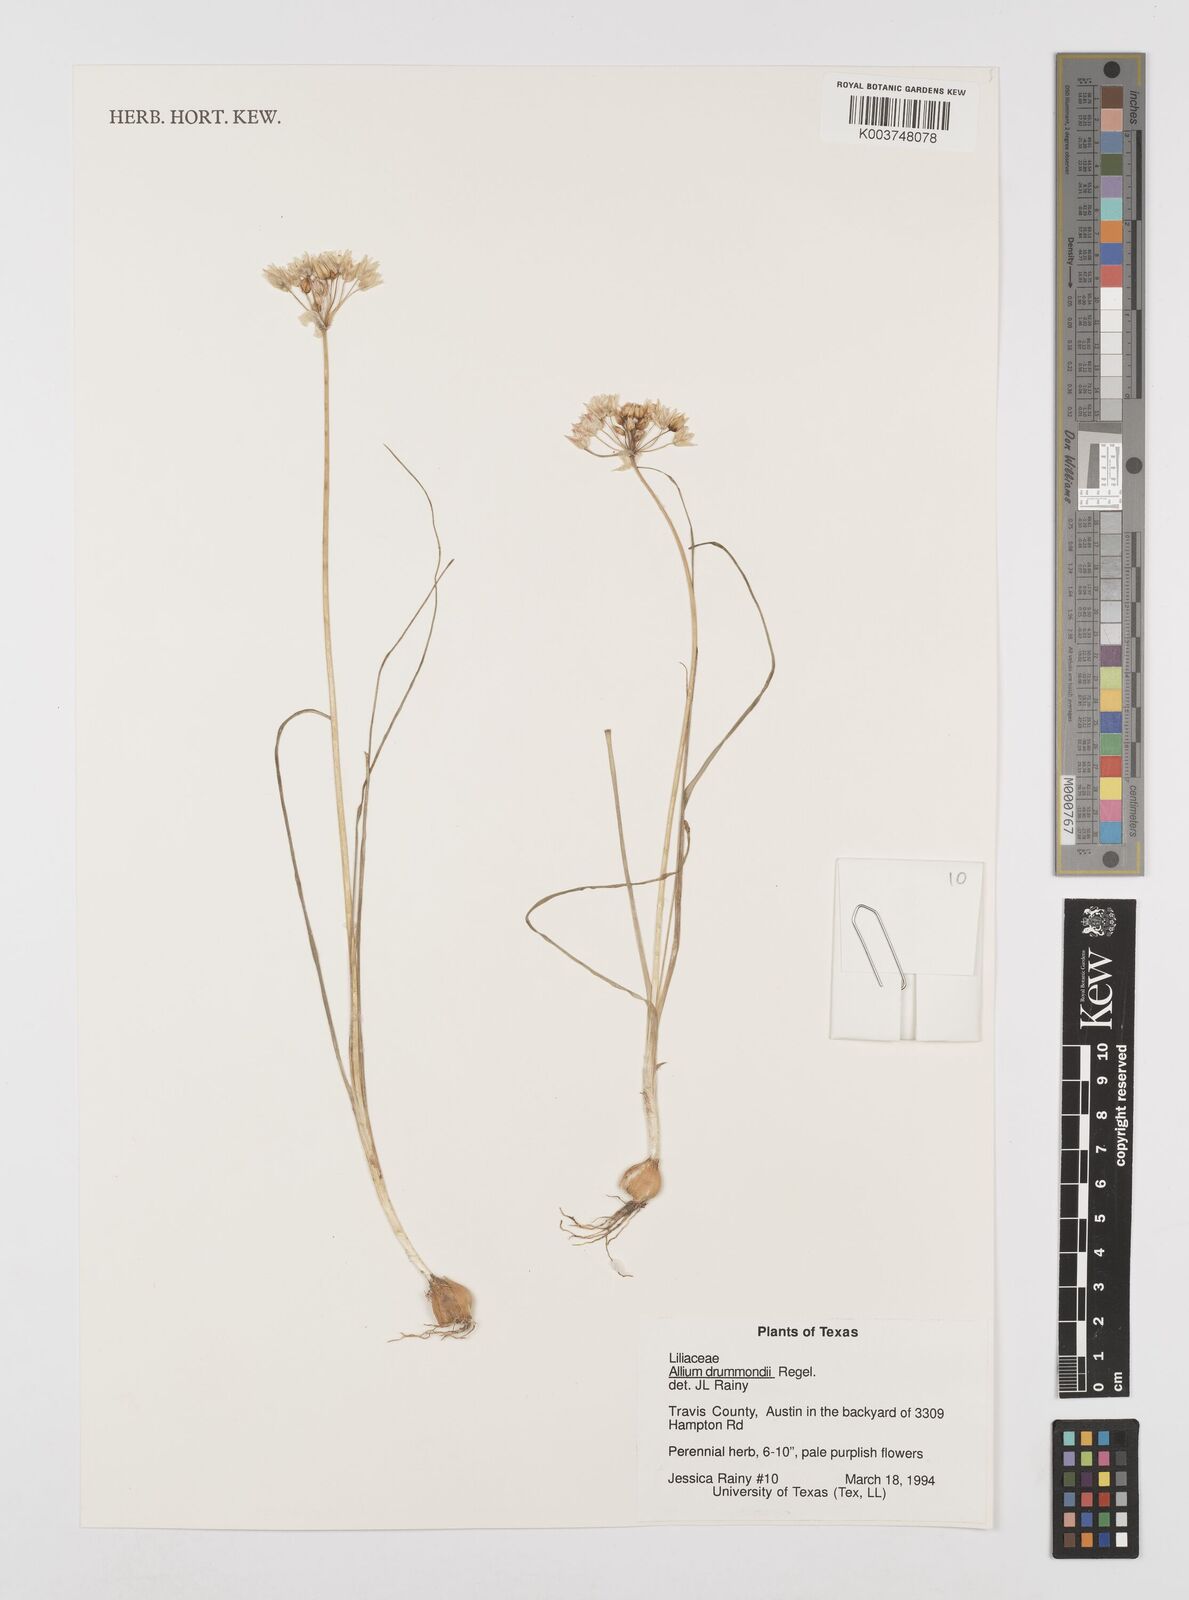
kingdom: Plantae
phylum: Tracheophyta
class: Liliopsida
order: Asparagales
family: Amaryllidaceae
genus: Allium
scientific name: Allium drummondii
